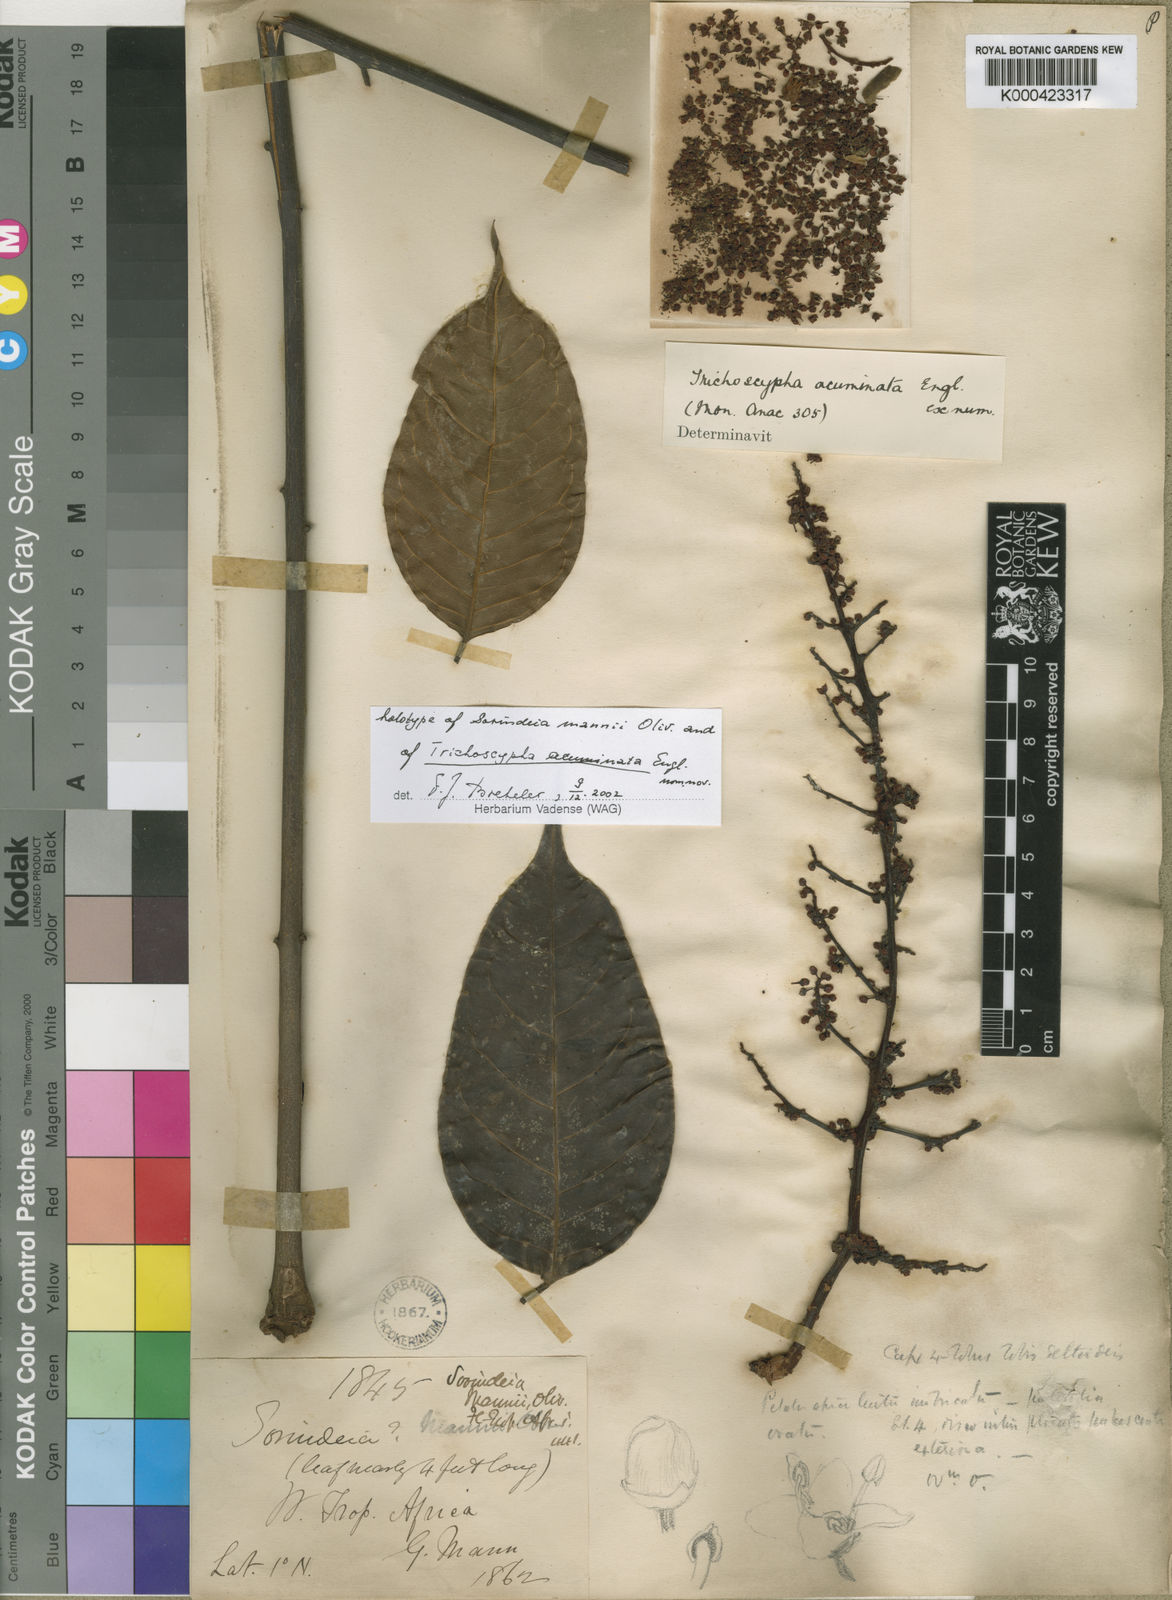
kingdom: Plantae
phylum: Tracheophyta
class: Magnoliopsida
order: Sapindales
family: Anacardiaceae
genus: Trichoscypha
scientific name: Trichoscypha acuminata
